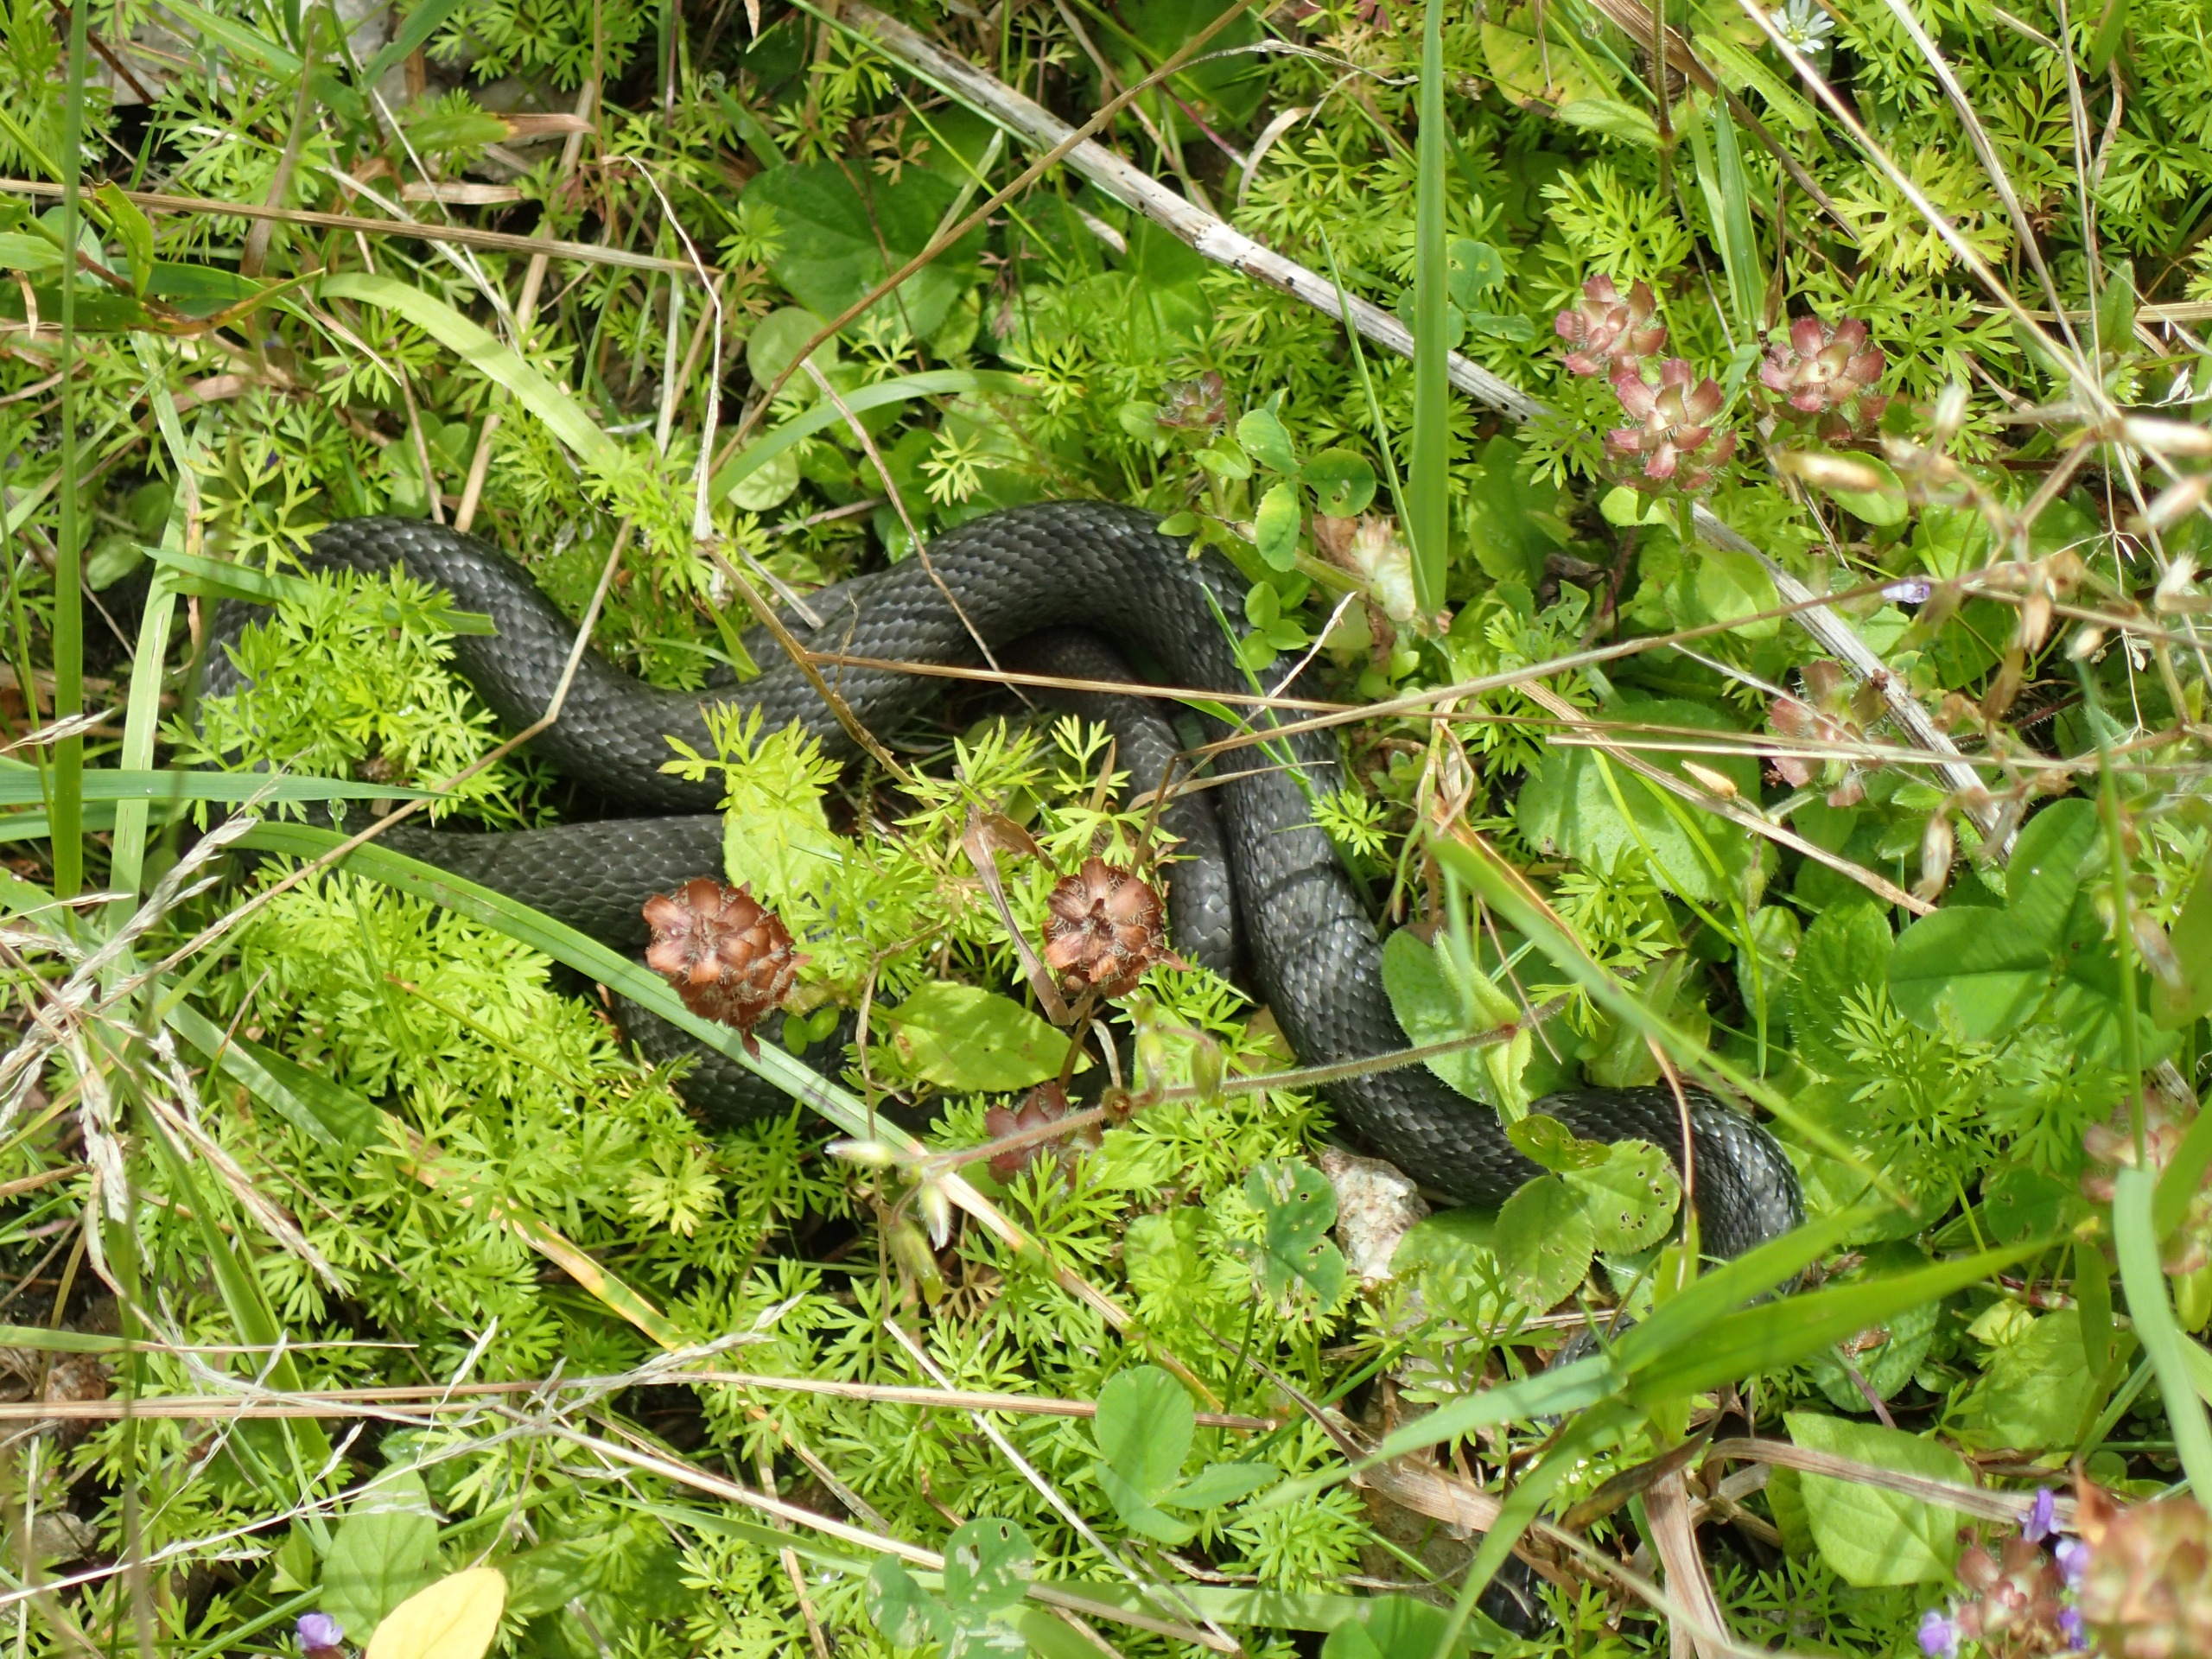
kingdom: Animalia
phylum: Chordata
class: Squamata
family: Colubridae
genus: Natrix
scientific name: Natrix natrix
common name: Snog
